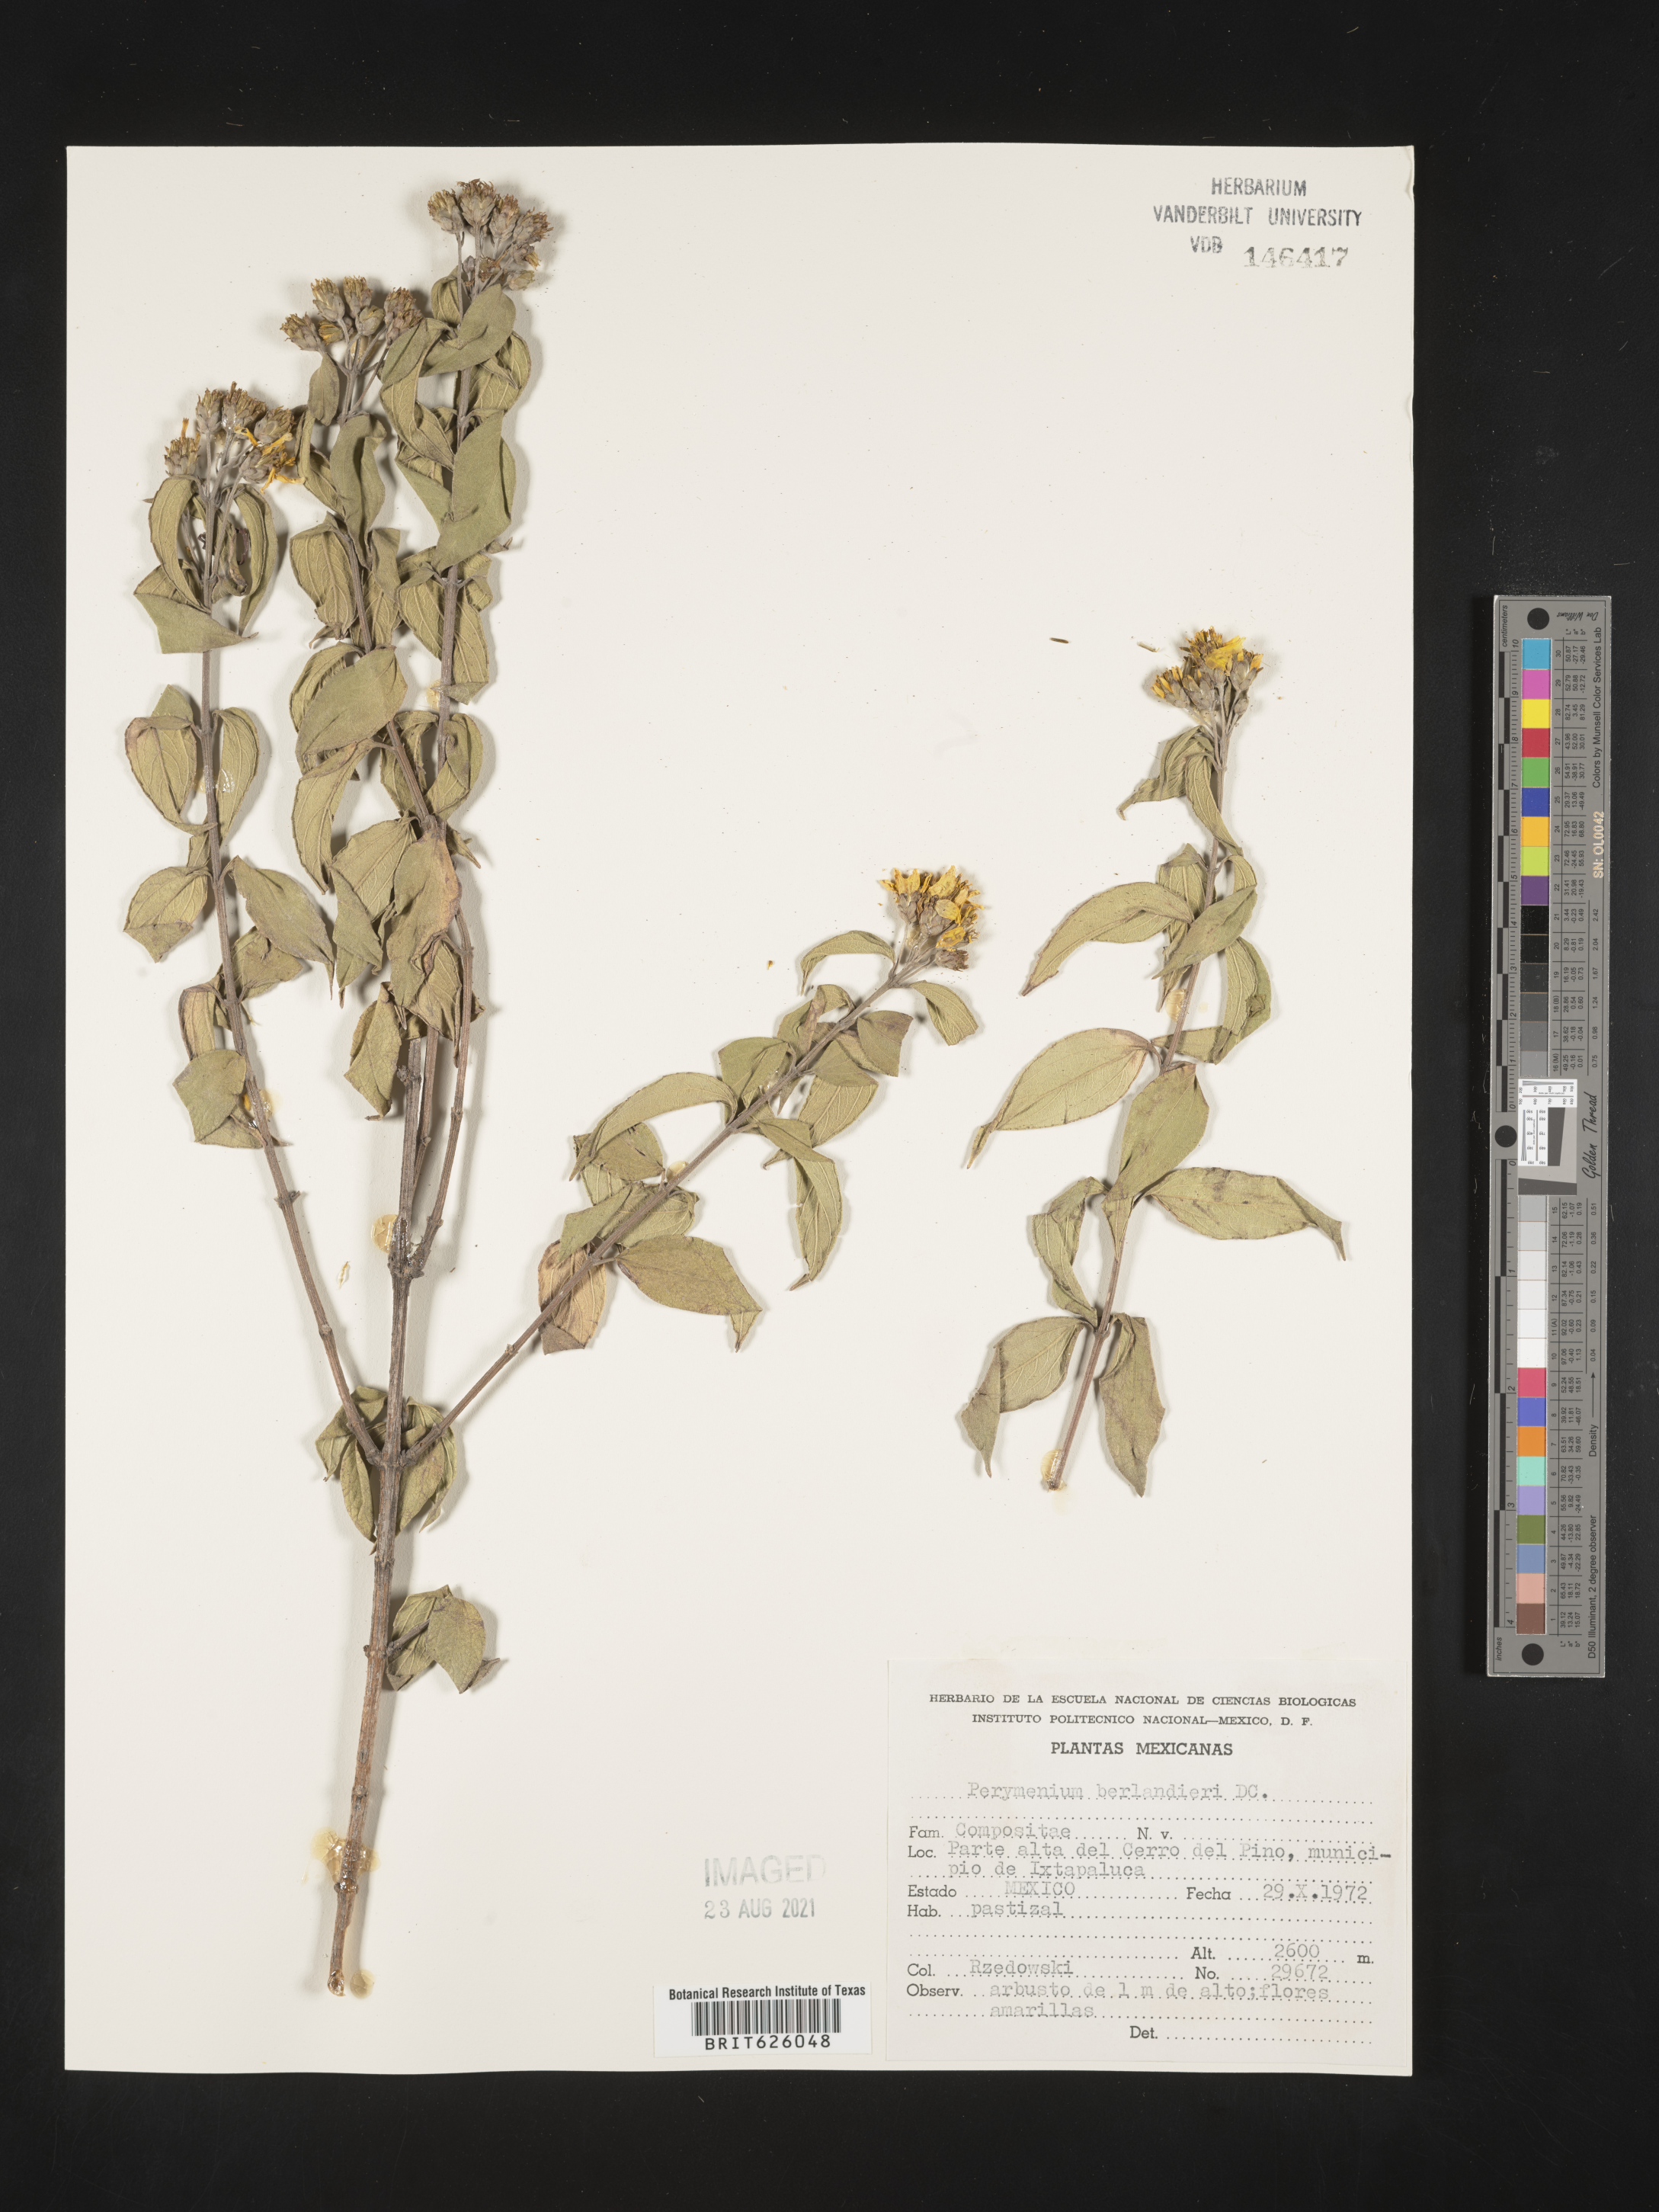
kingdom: Plantae
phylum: Tracheophyta
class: Magnoliopsida
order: Asterales
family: Asteraceae
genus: Perymenium
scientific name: Perymenium
